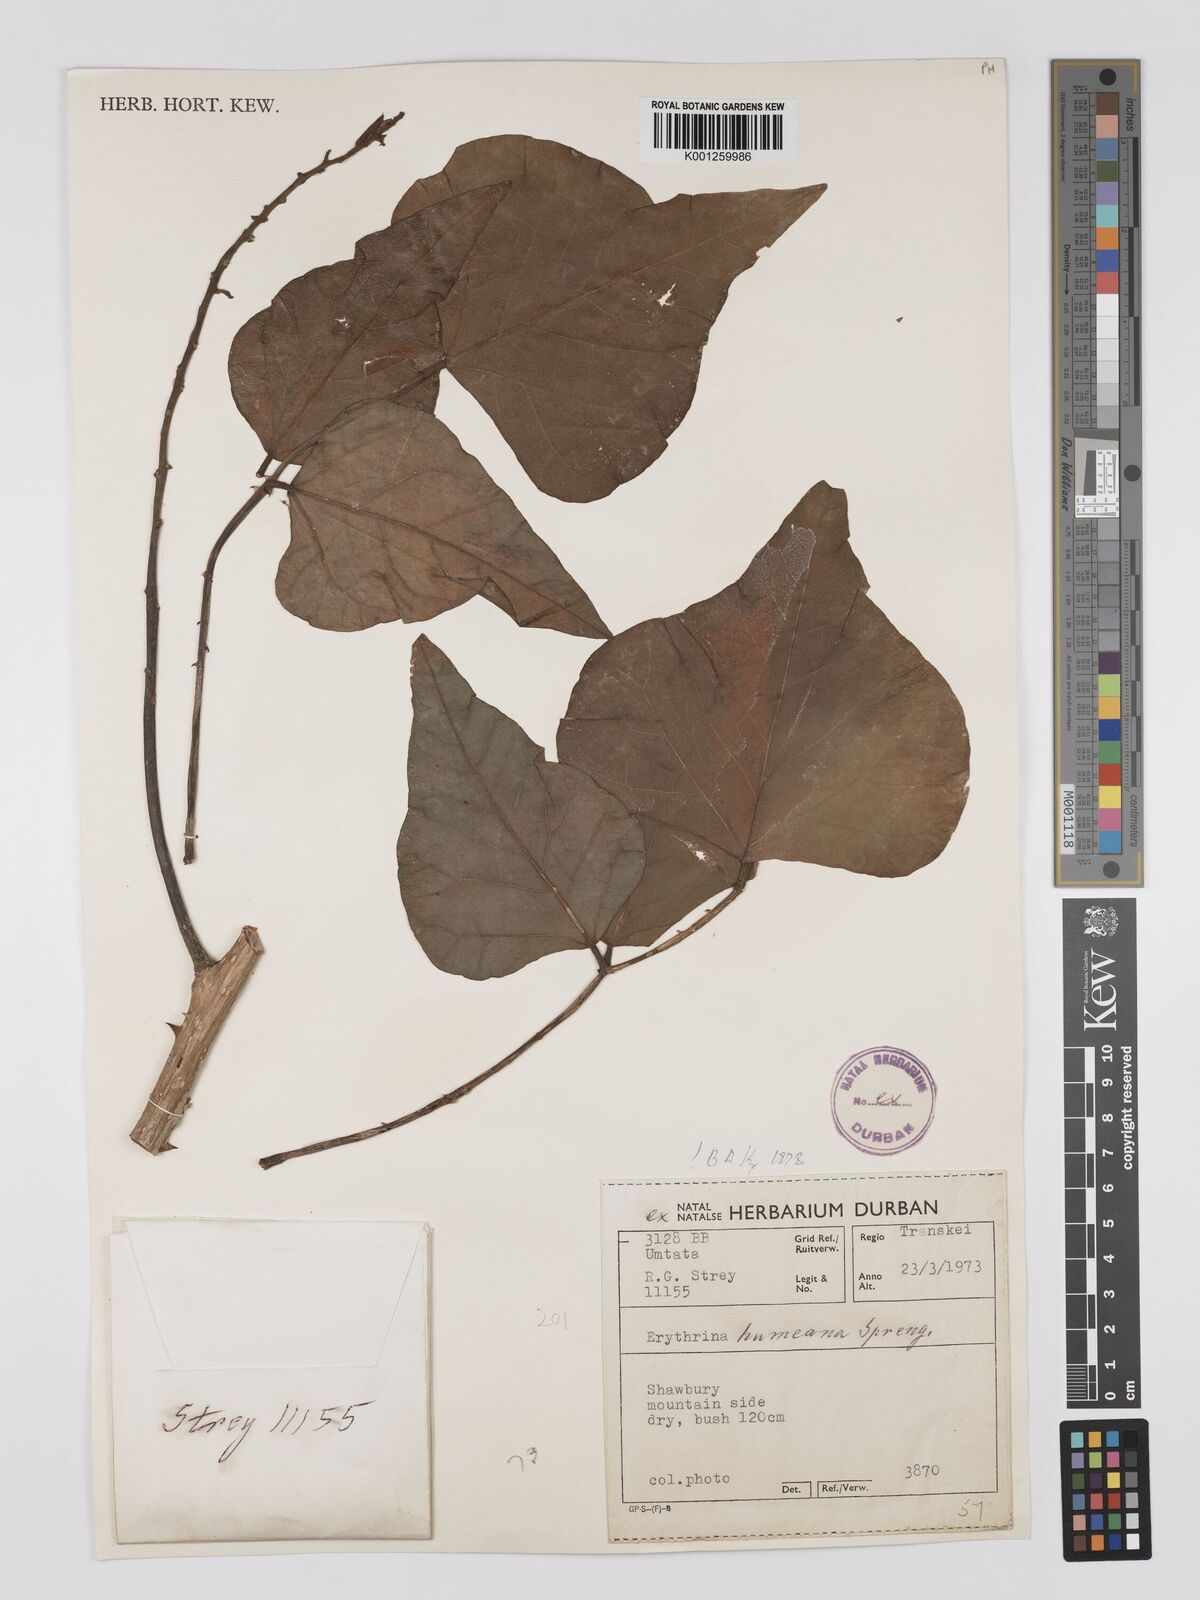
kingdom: Plantae
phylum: Tracheophyta
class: Magnoliopsida
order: Fabales
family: Fabaceae
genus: Erythrina
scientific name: Erythrina humeana
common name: Dwarf coral tree
